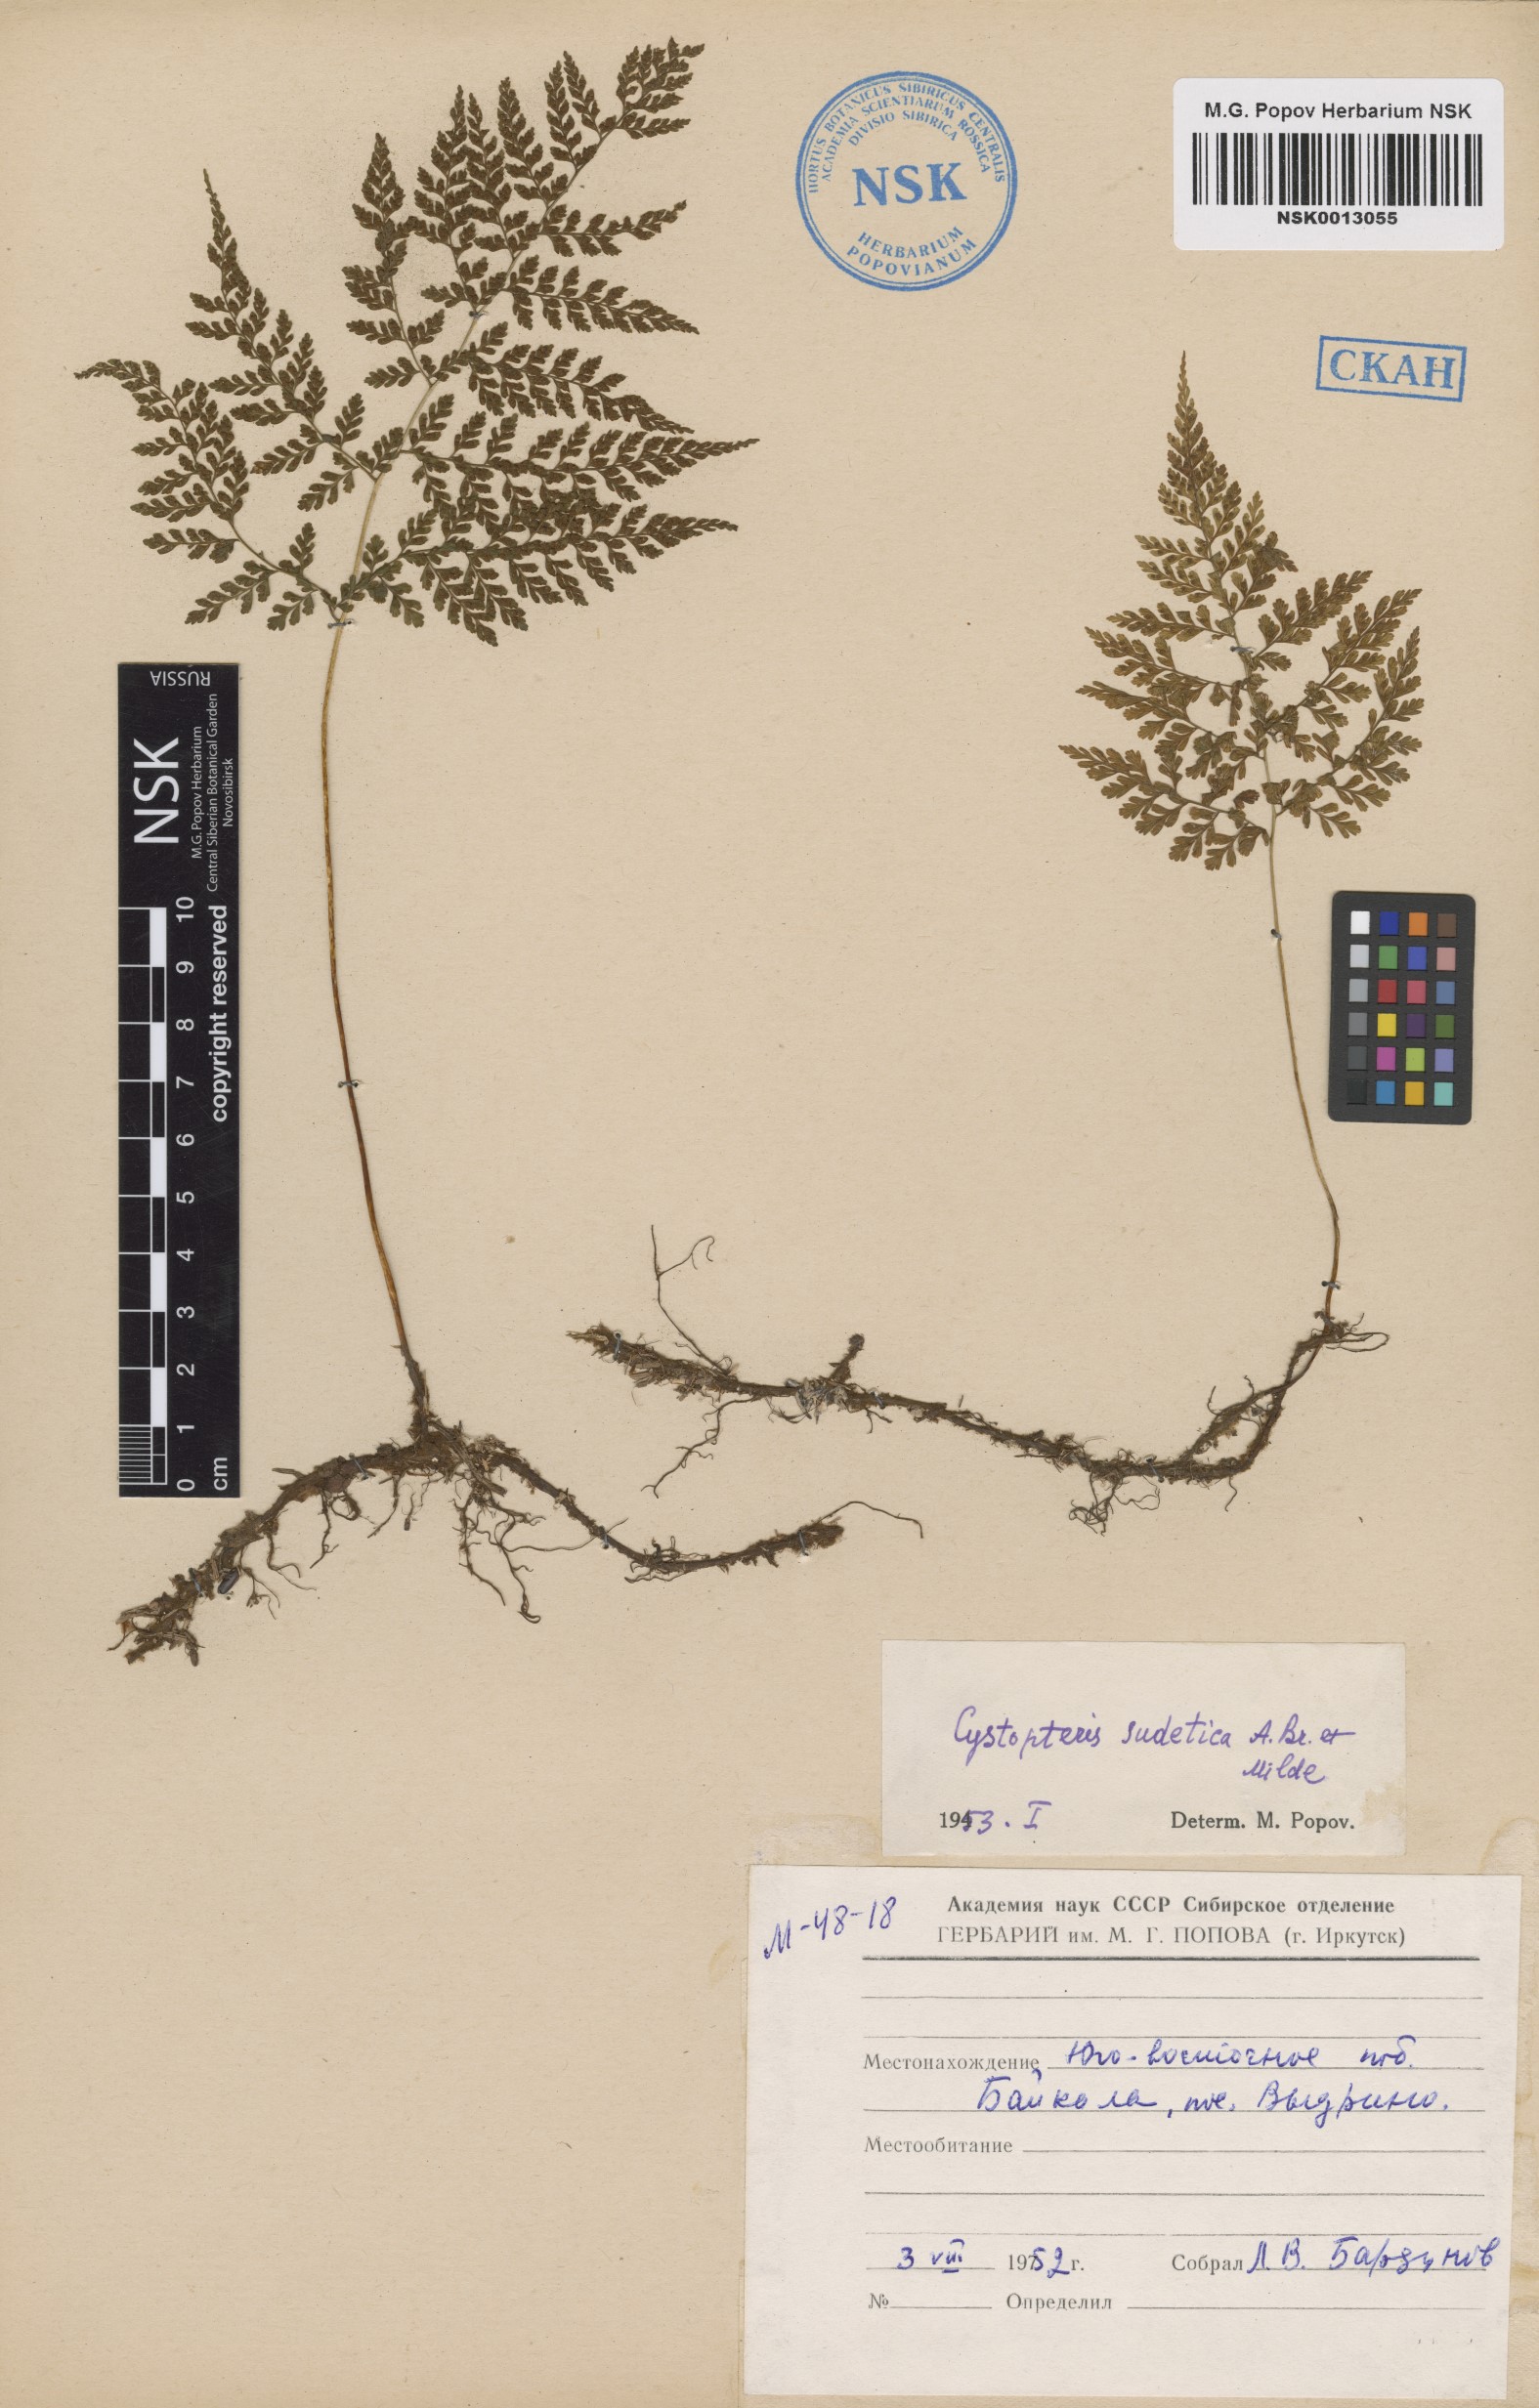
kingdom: Plantae
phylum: Tracheophyta
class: Polypodiopsida
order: Polypodiales
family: Cystopteridaceae
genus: Cystopteris
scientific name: Cystopteris sudetica
